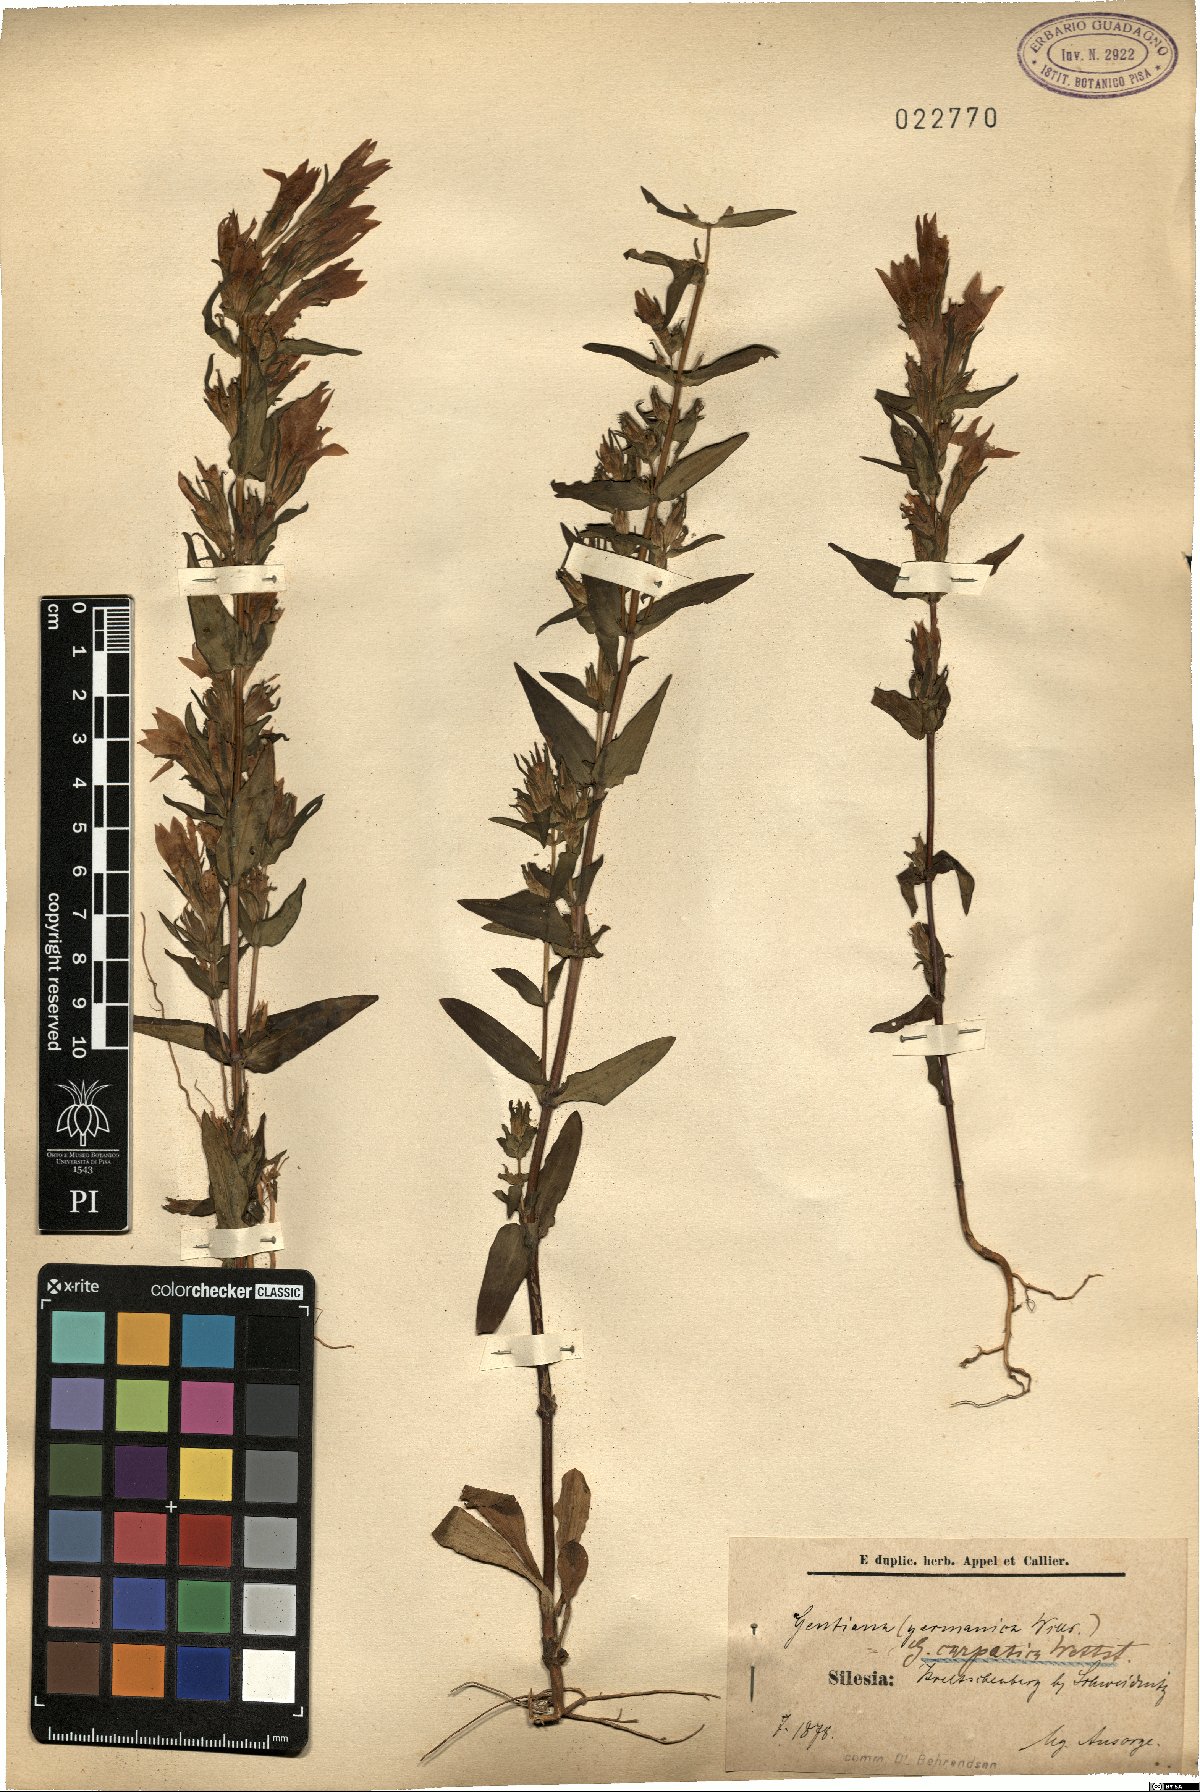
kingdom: Plantae
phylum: Tracheophyta
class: Magnoliopsida
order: Gentianales
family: Gentianaceae
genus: Gentianella
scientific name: Gentianella praecox
